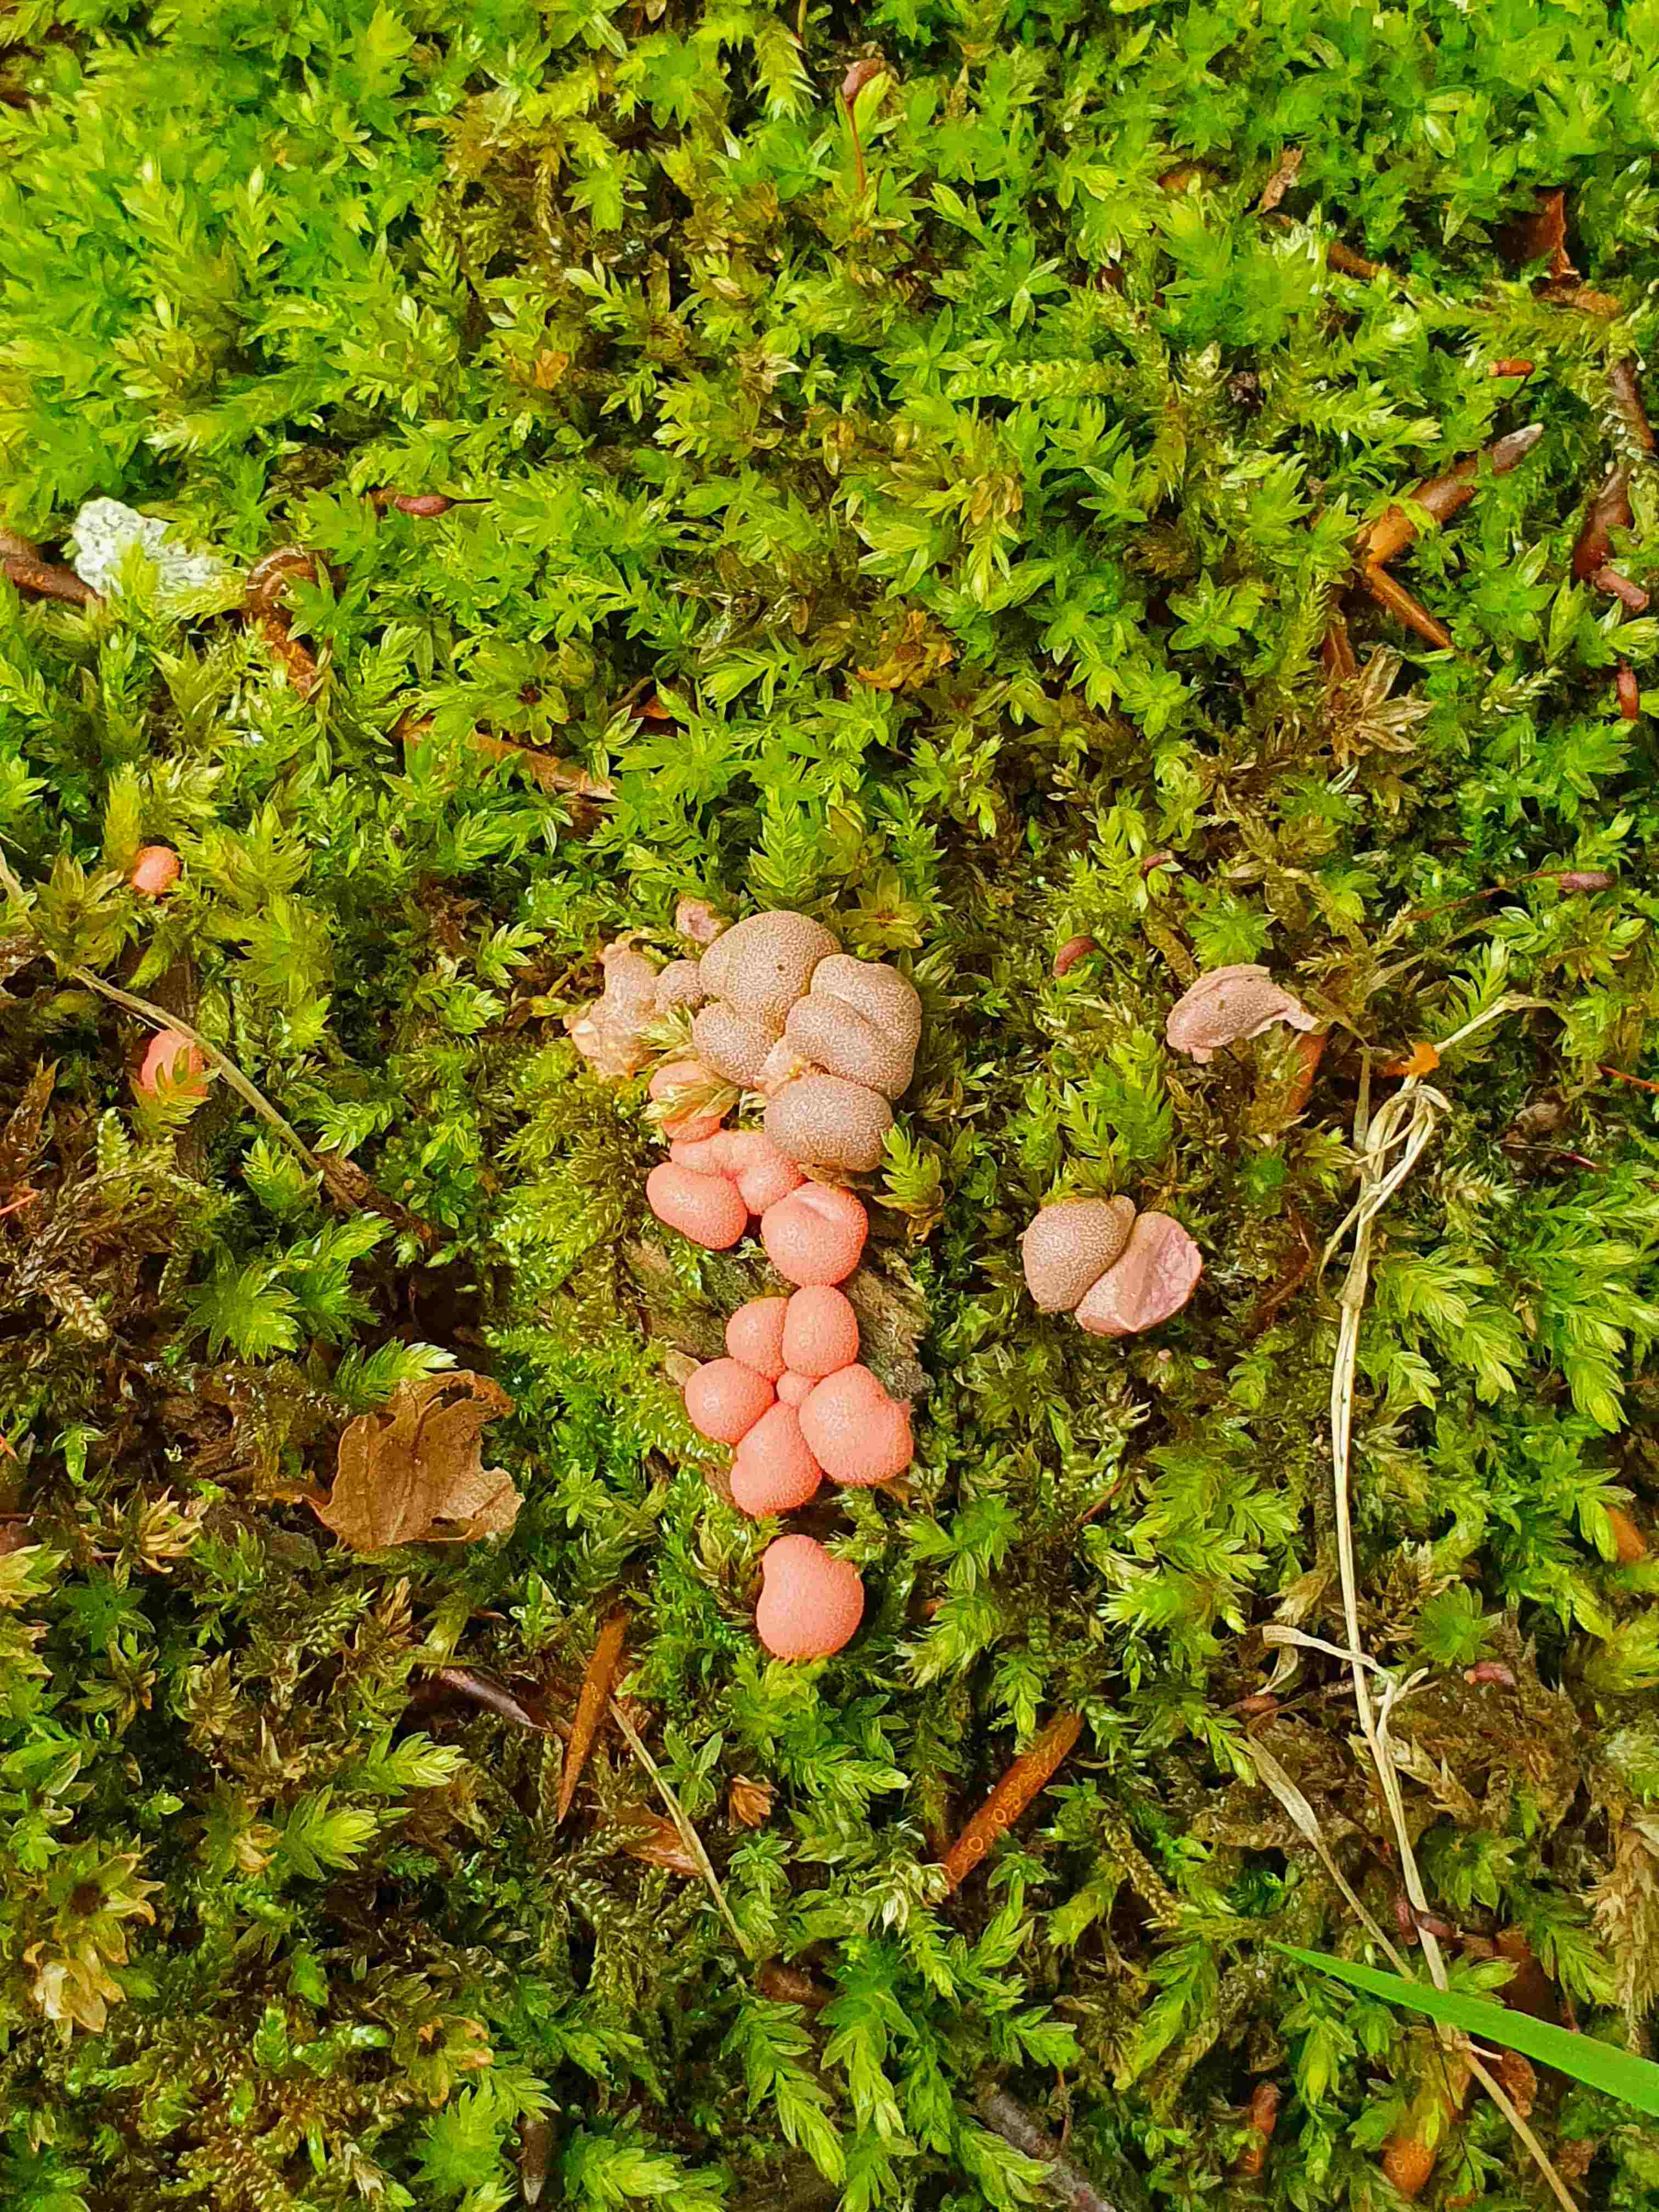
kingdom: Protozoa
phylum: Mycetozoa
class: Myxomycetes
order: Cribrariales
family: Tubiferaceae
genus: Lycogala
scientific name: Lycogala epidendrum
